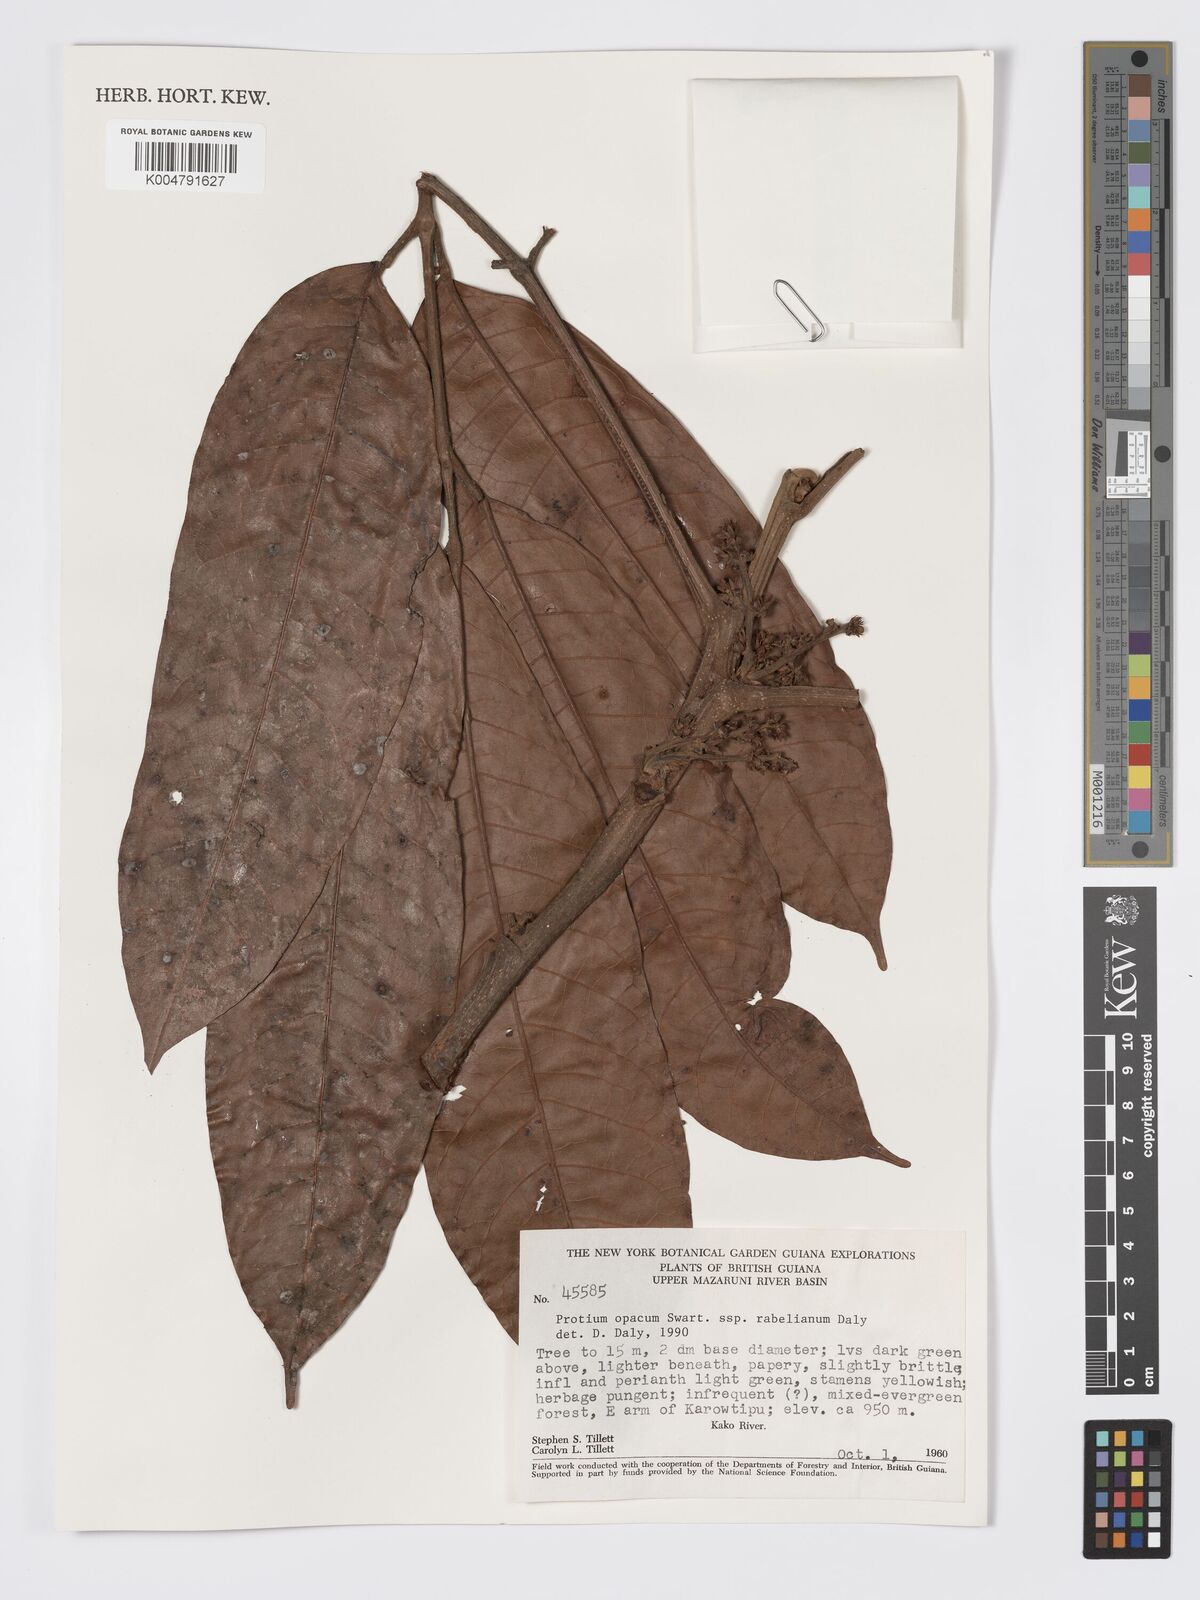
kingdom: Plantae
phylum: Tracheophyta
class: Magnoliopsida
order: Sapindales
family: Burseraceae
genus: Protium
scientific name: Protium opacum
